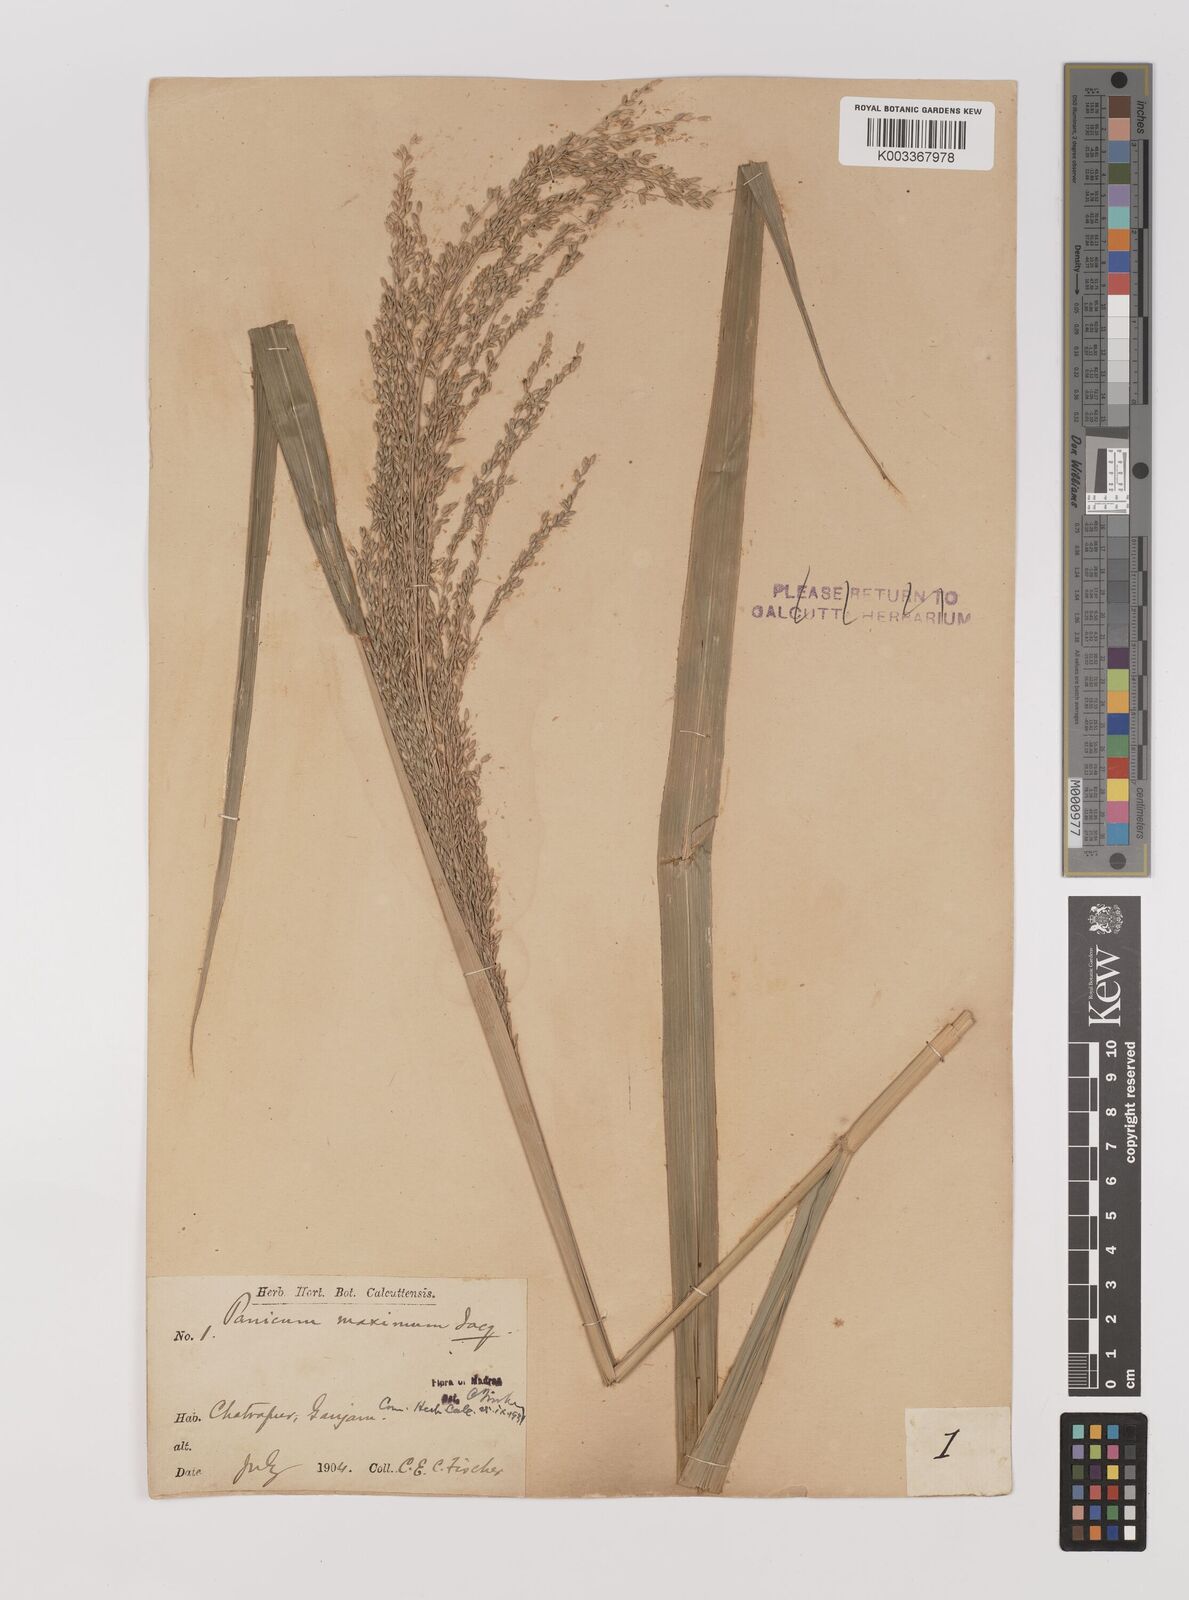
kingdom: Plantae
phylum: Tracheophyta
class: Liliopsida
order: Poales
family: Poaceae
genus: Megathyrsus
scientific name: Megathyrsus maximus
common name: Guineagrass
